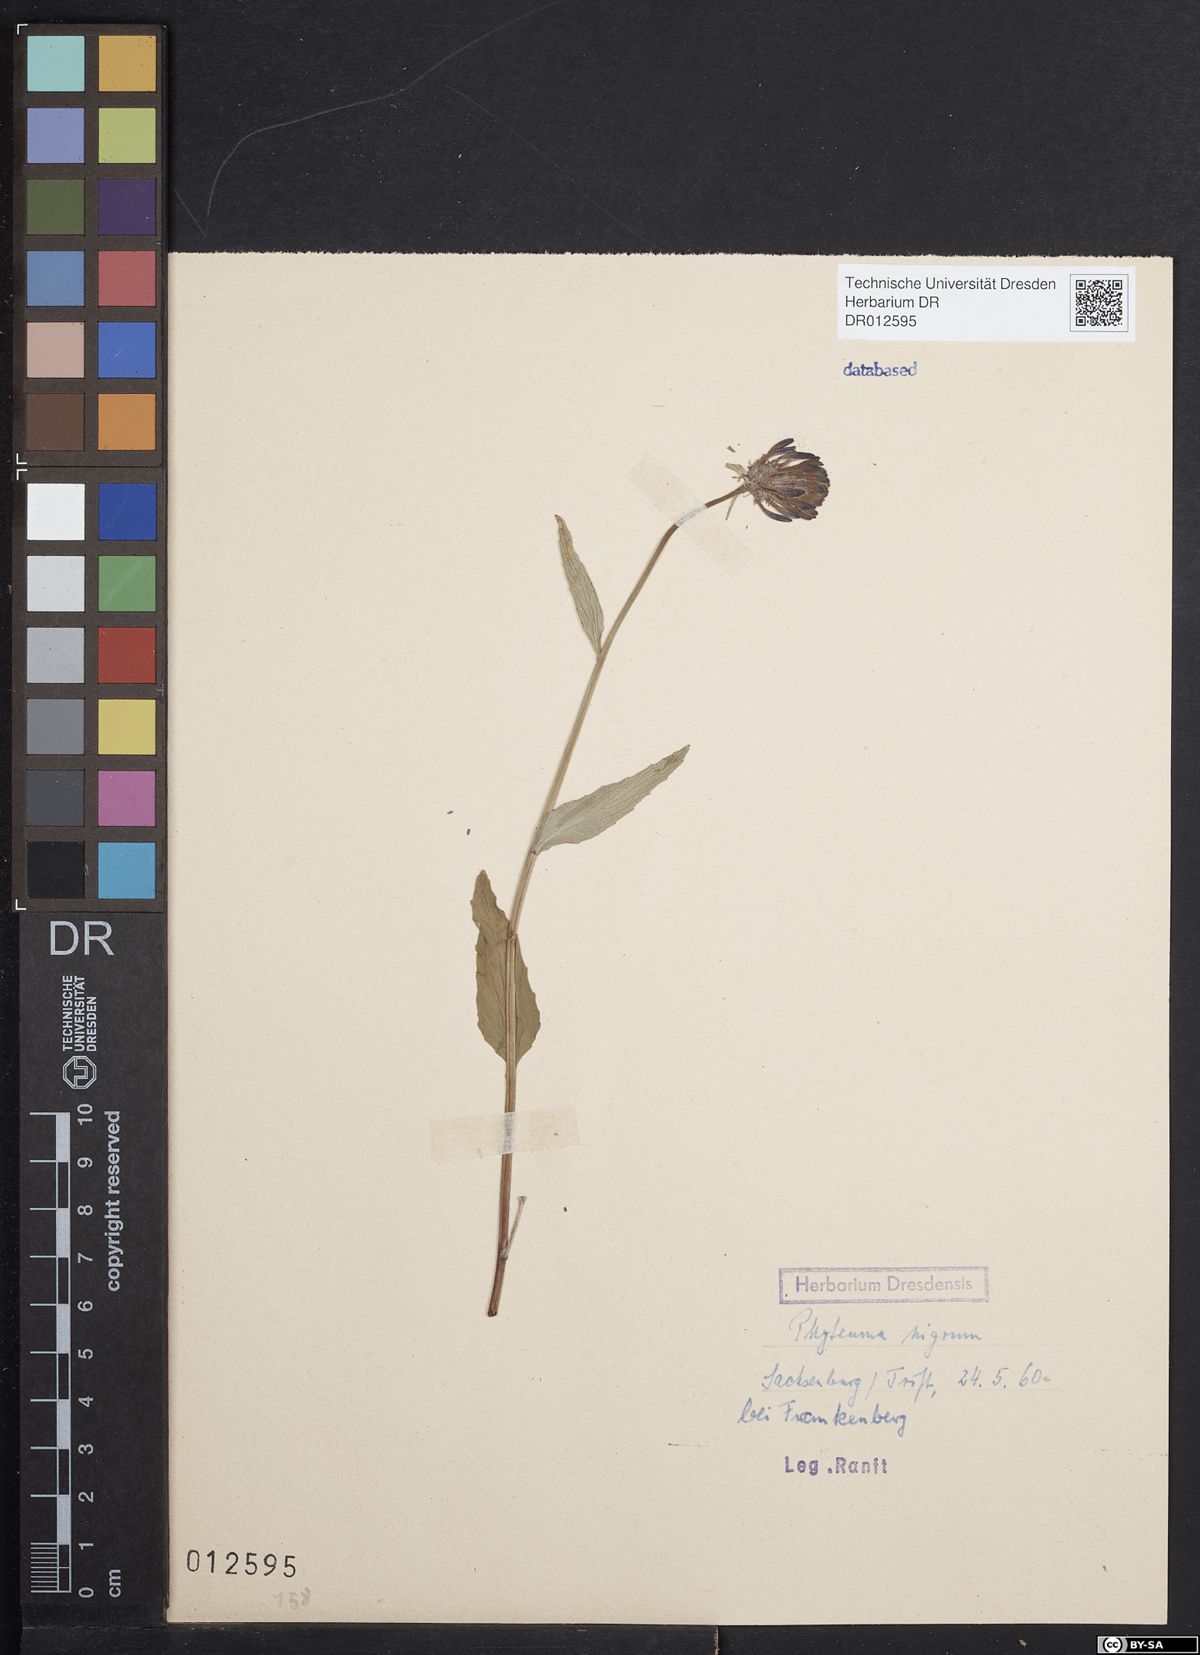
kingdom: Plantae
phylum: Tracheophyta
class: Magnoliopsida
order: Asterales
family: Campanulaceae
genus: Phyteuma
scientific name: Phyteuma nigrum
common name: Black rampion
